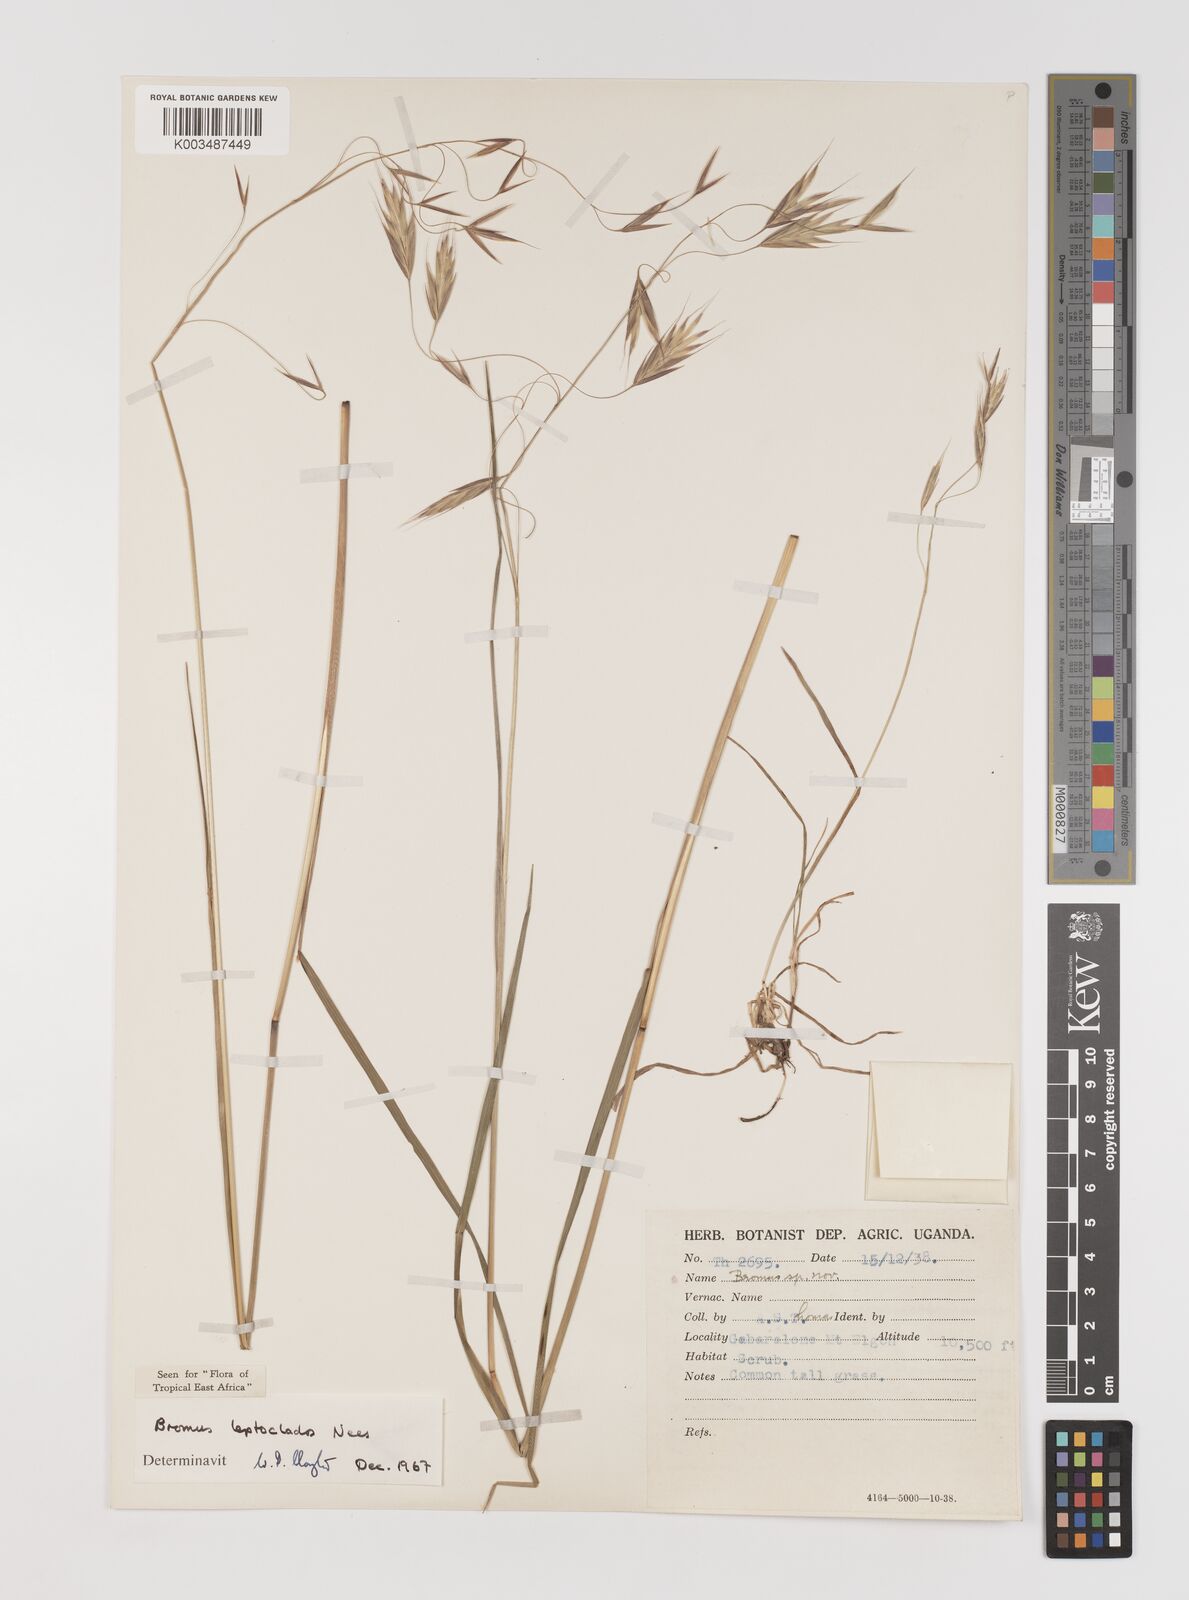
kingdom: Plantae
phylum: Tracheophyta
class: Liliopsida
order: Poales
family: Poaceae
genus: Bromus
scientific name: Bromus leptoclados
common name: Mountain bromegrass
